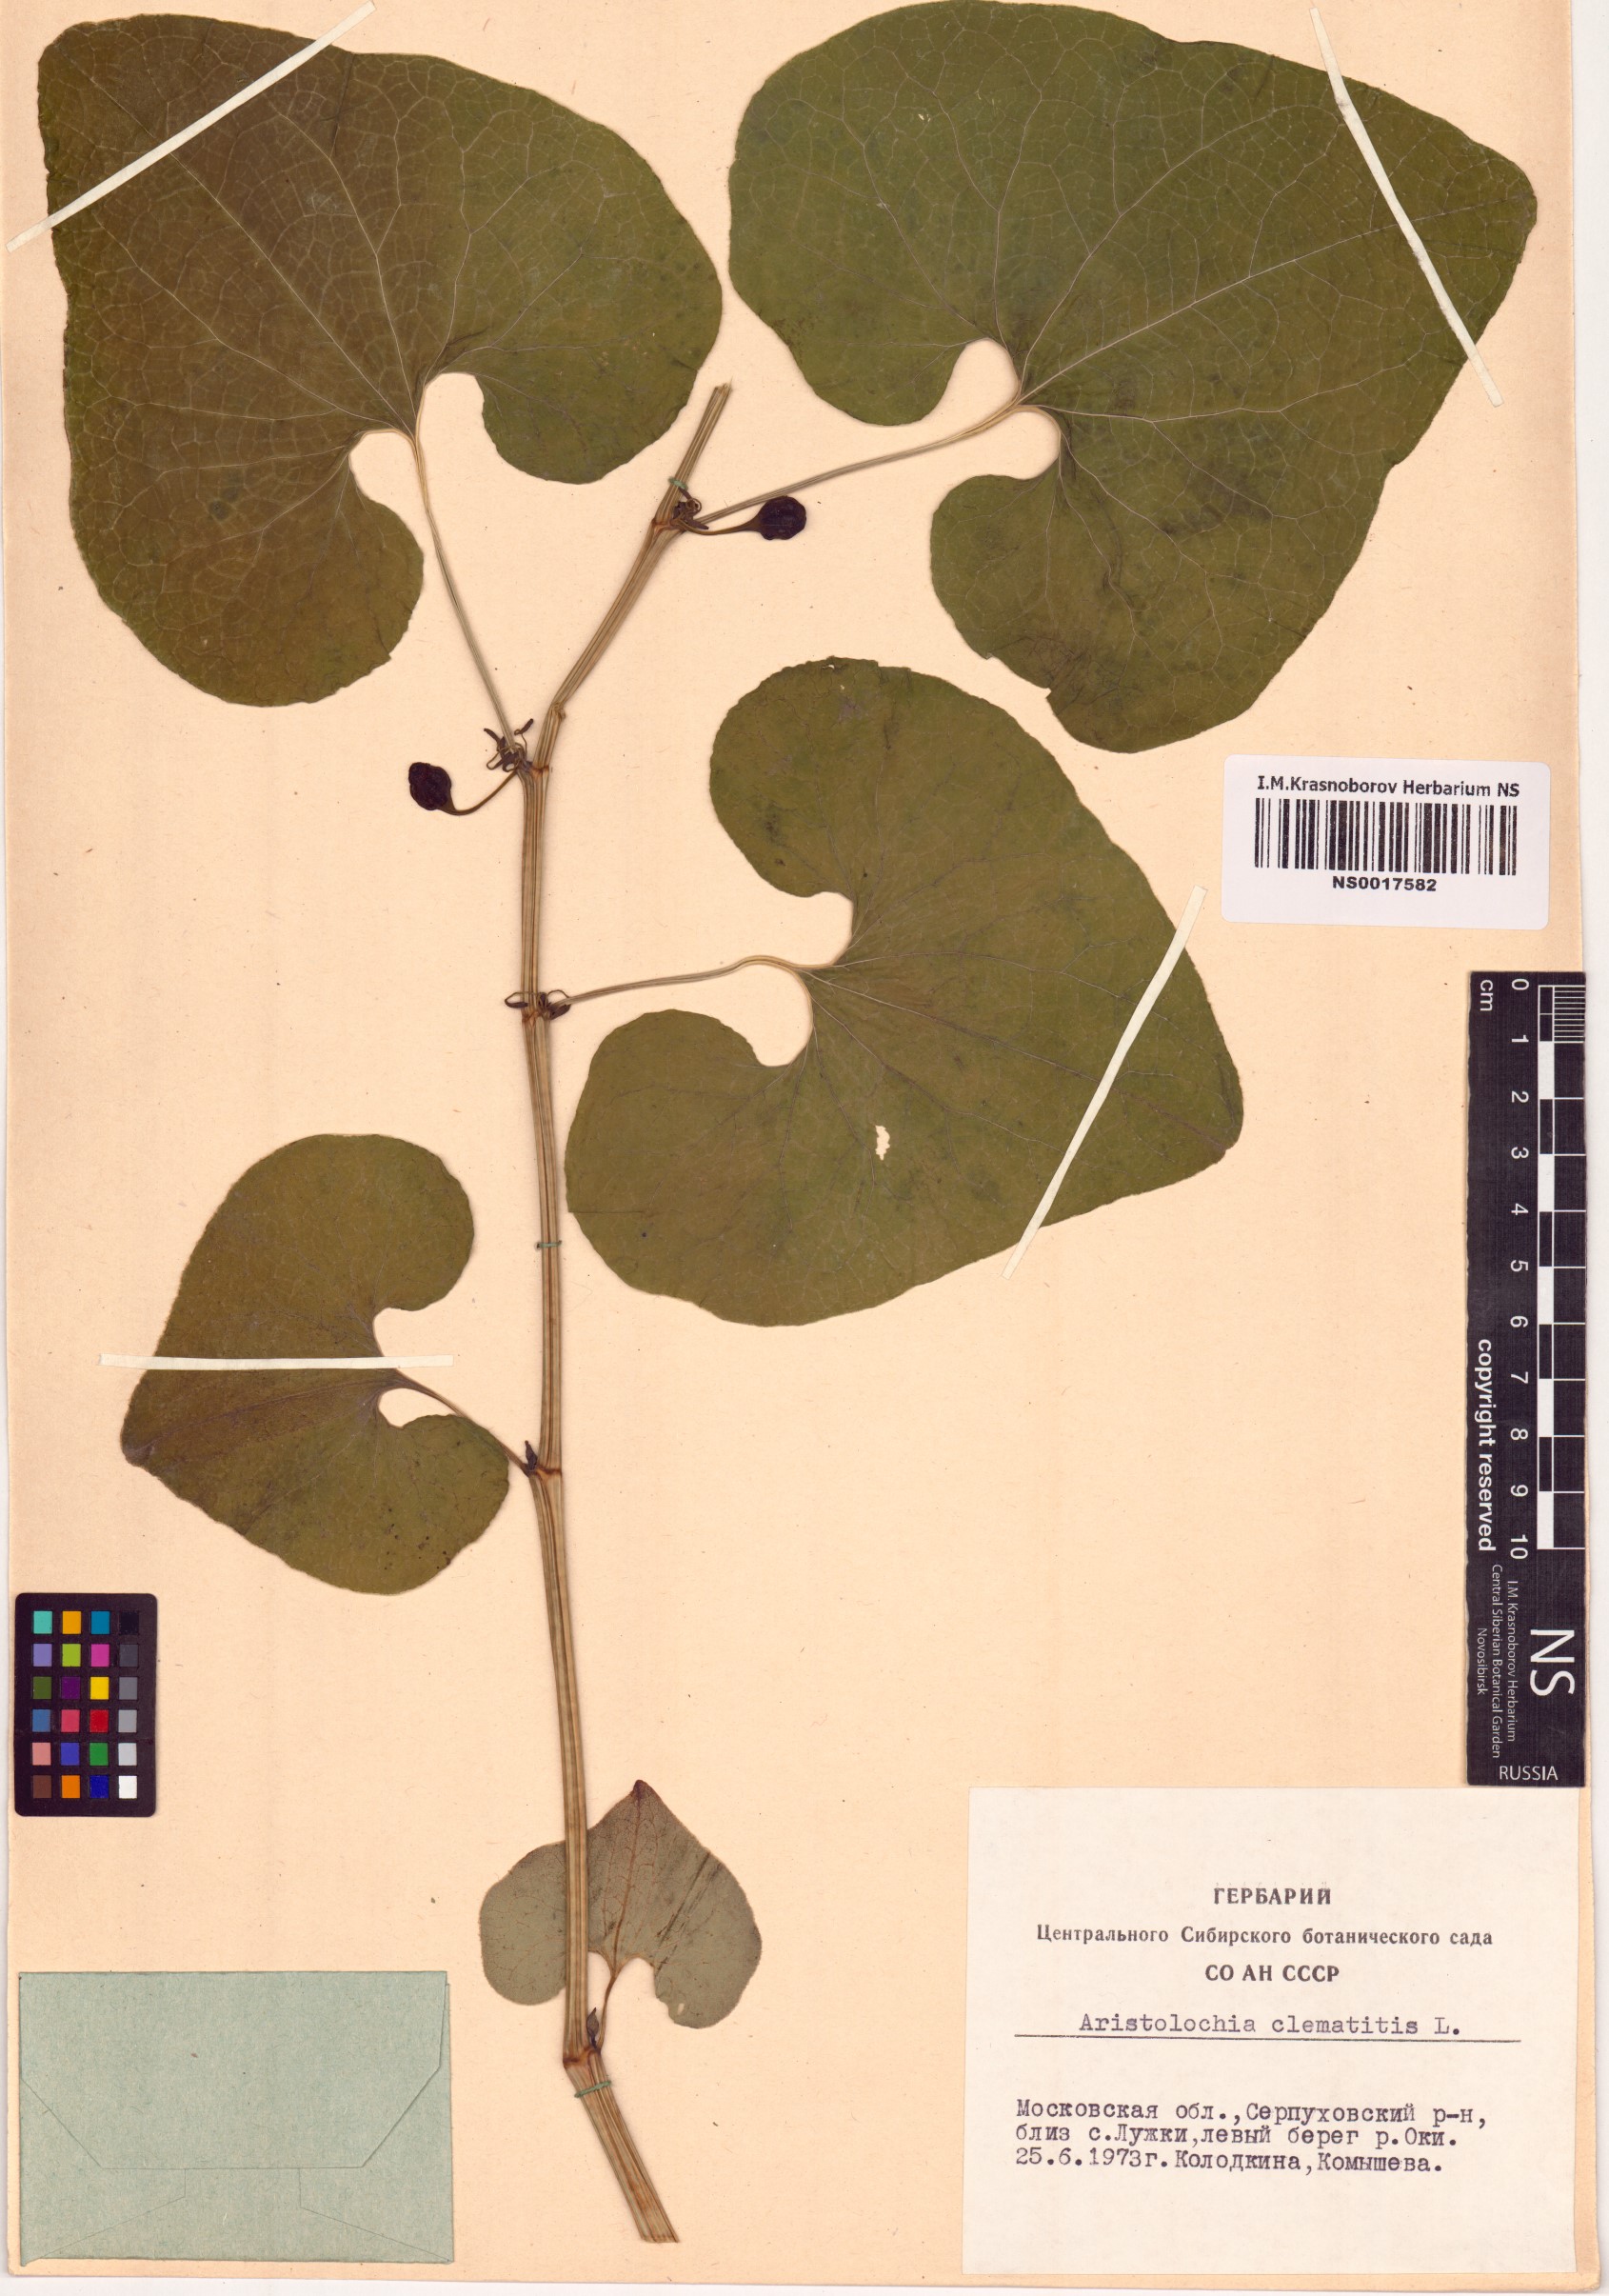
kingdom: Plantae
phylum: Tracheophyta
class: Magnoliopsida
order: Piperales
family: Aristolochiaceae
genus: Aristolochia
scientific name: Aristolochia clematitis
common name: Birthwort
